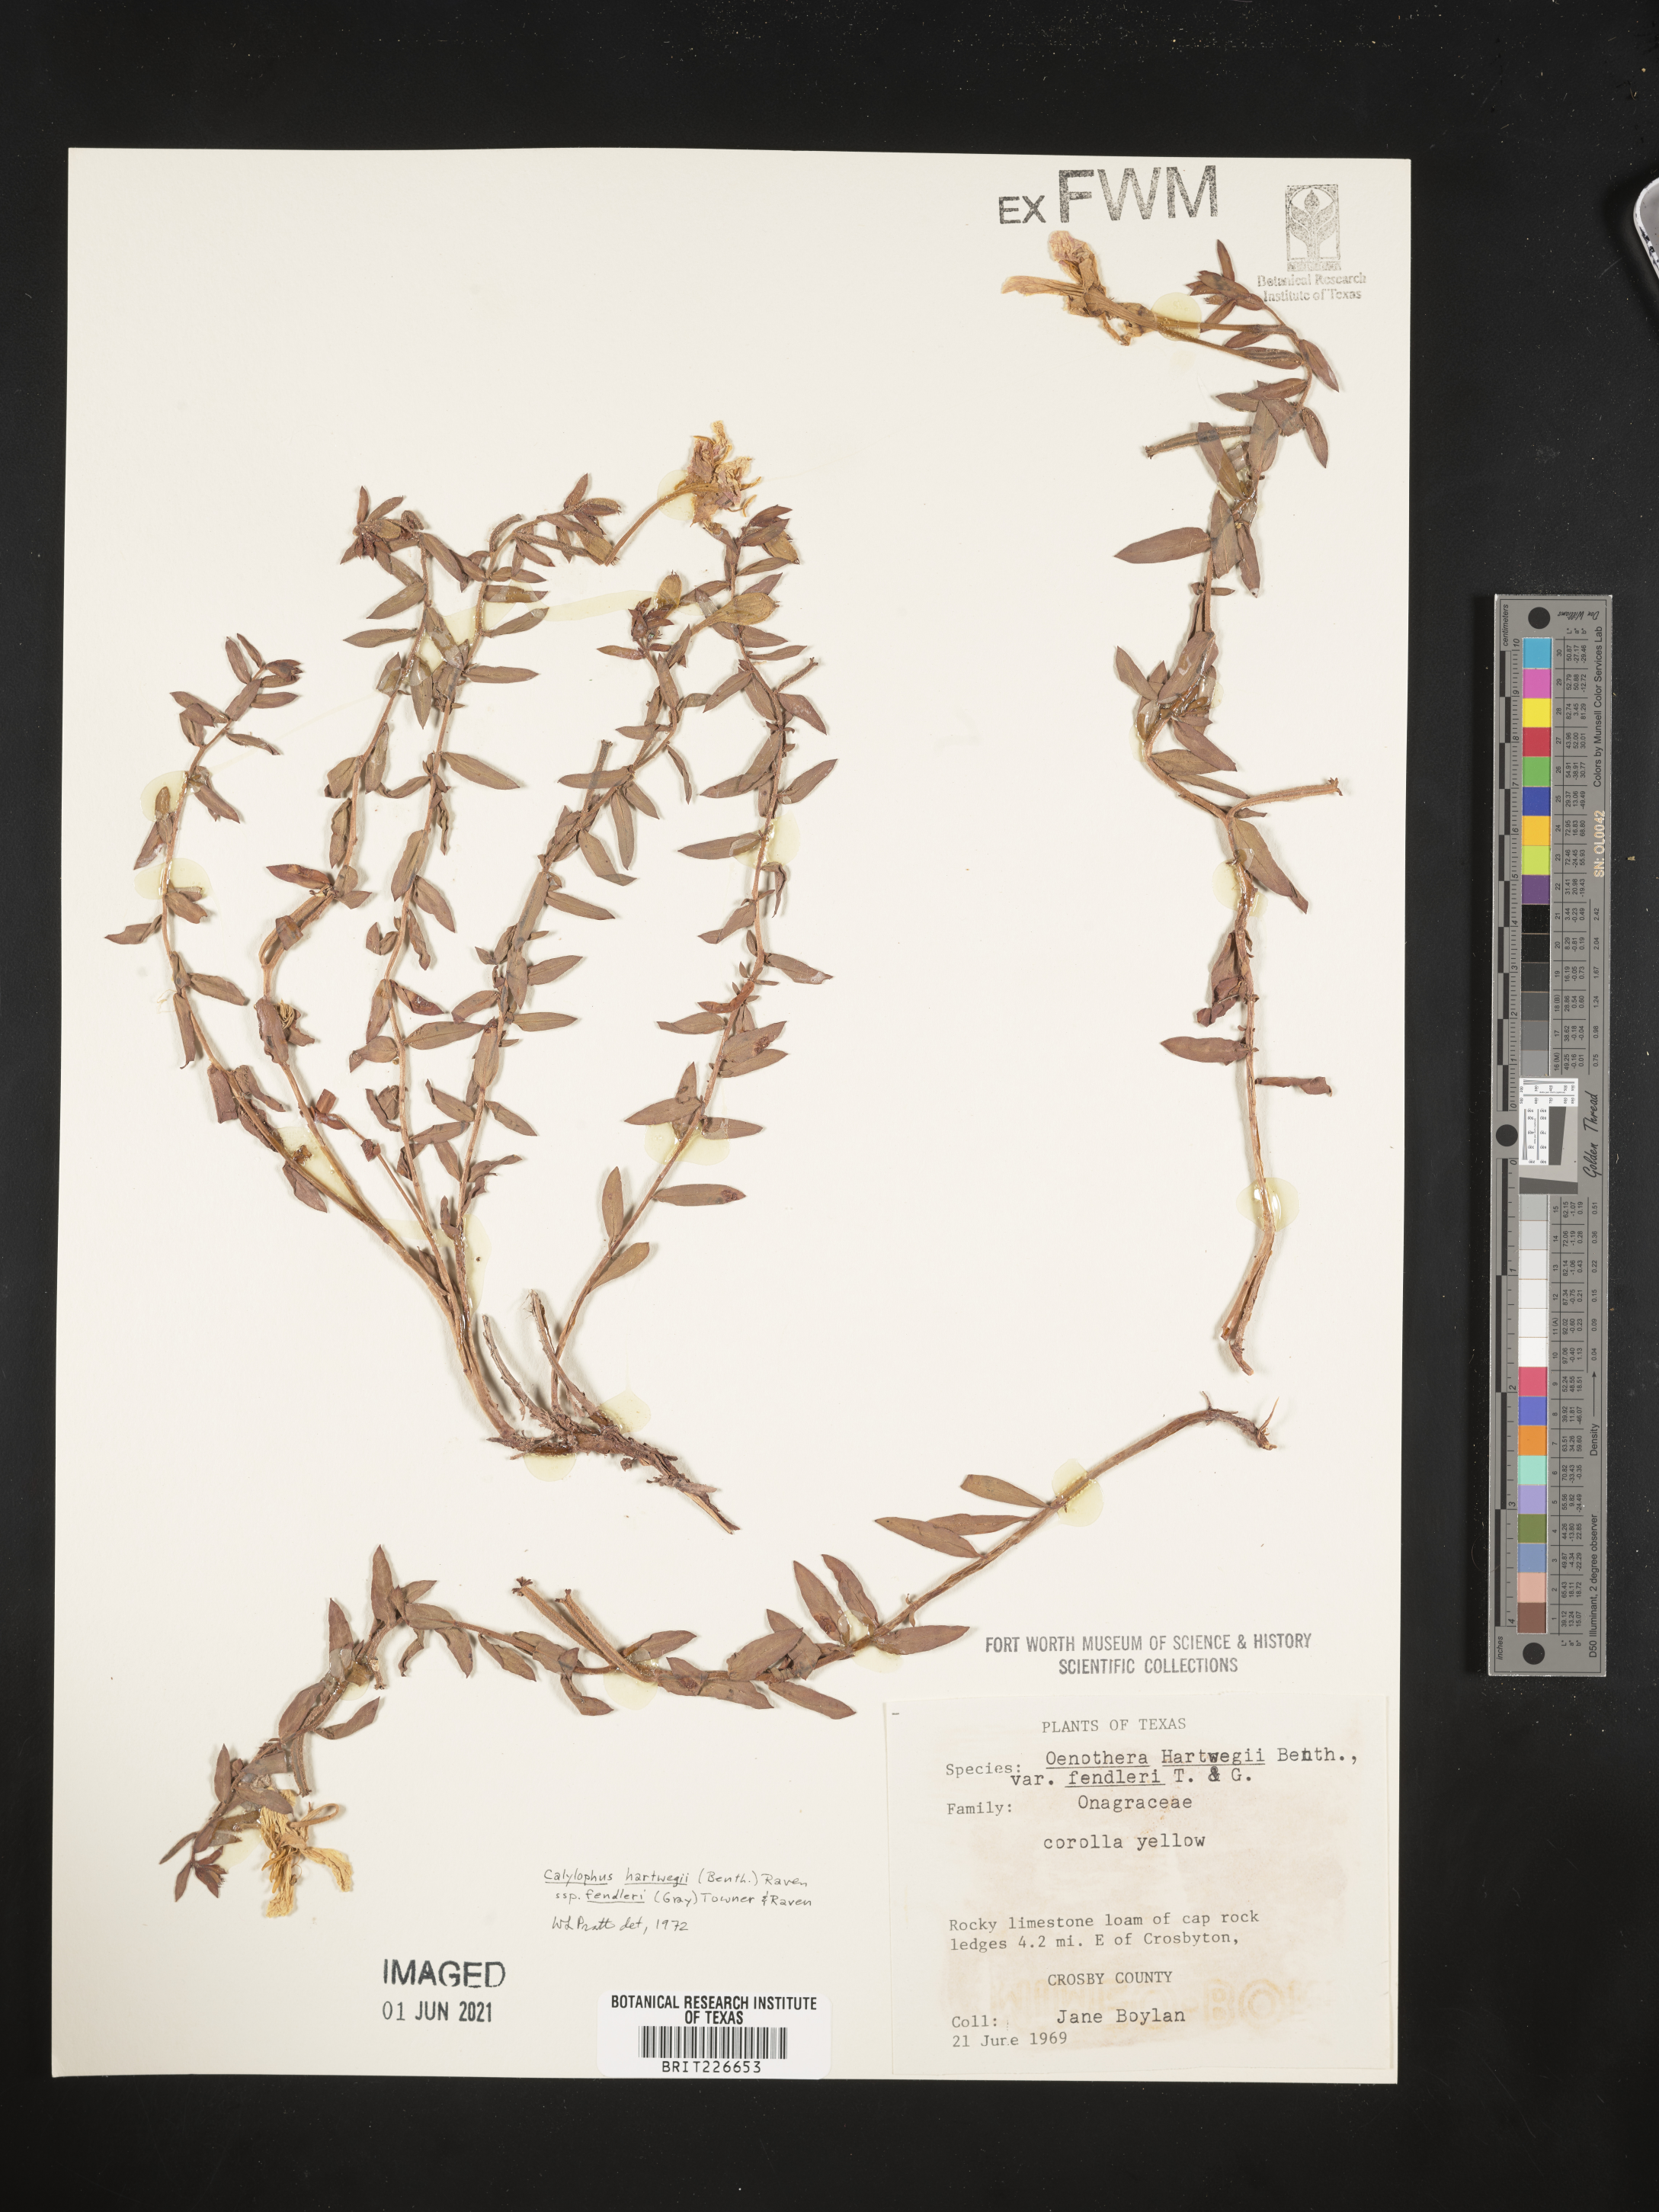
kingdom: Plantae
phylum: Tracheophyta
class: Magnoliopsida
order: Myrtales
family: Onagraceae
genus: Oenothera
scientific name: Oenothera hartwegii
